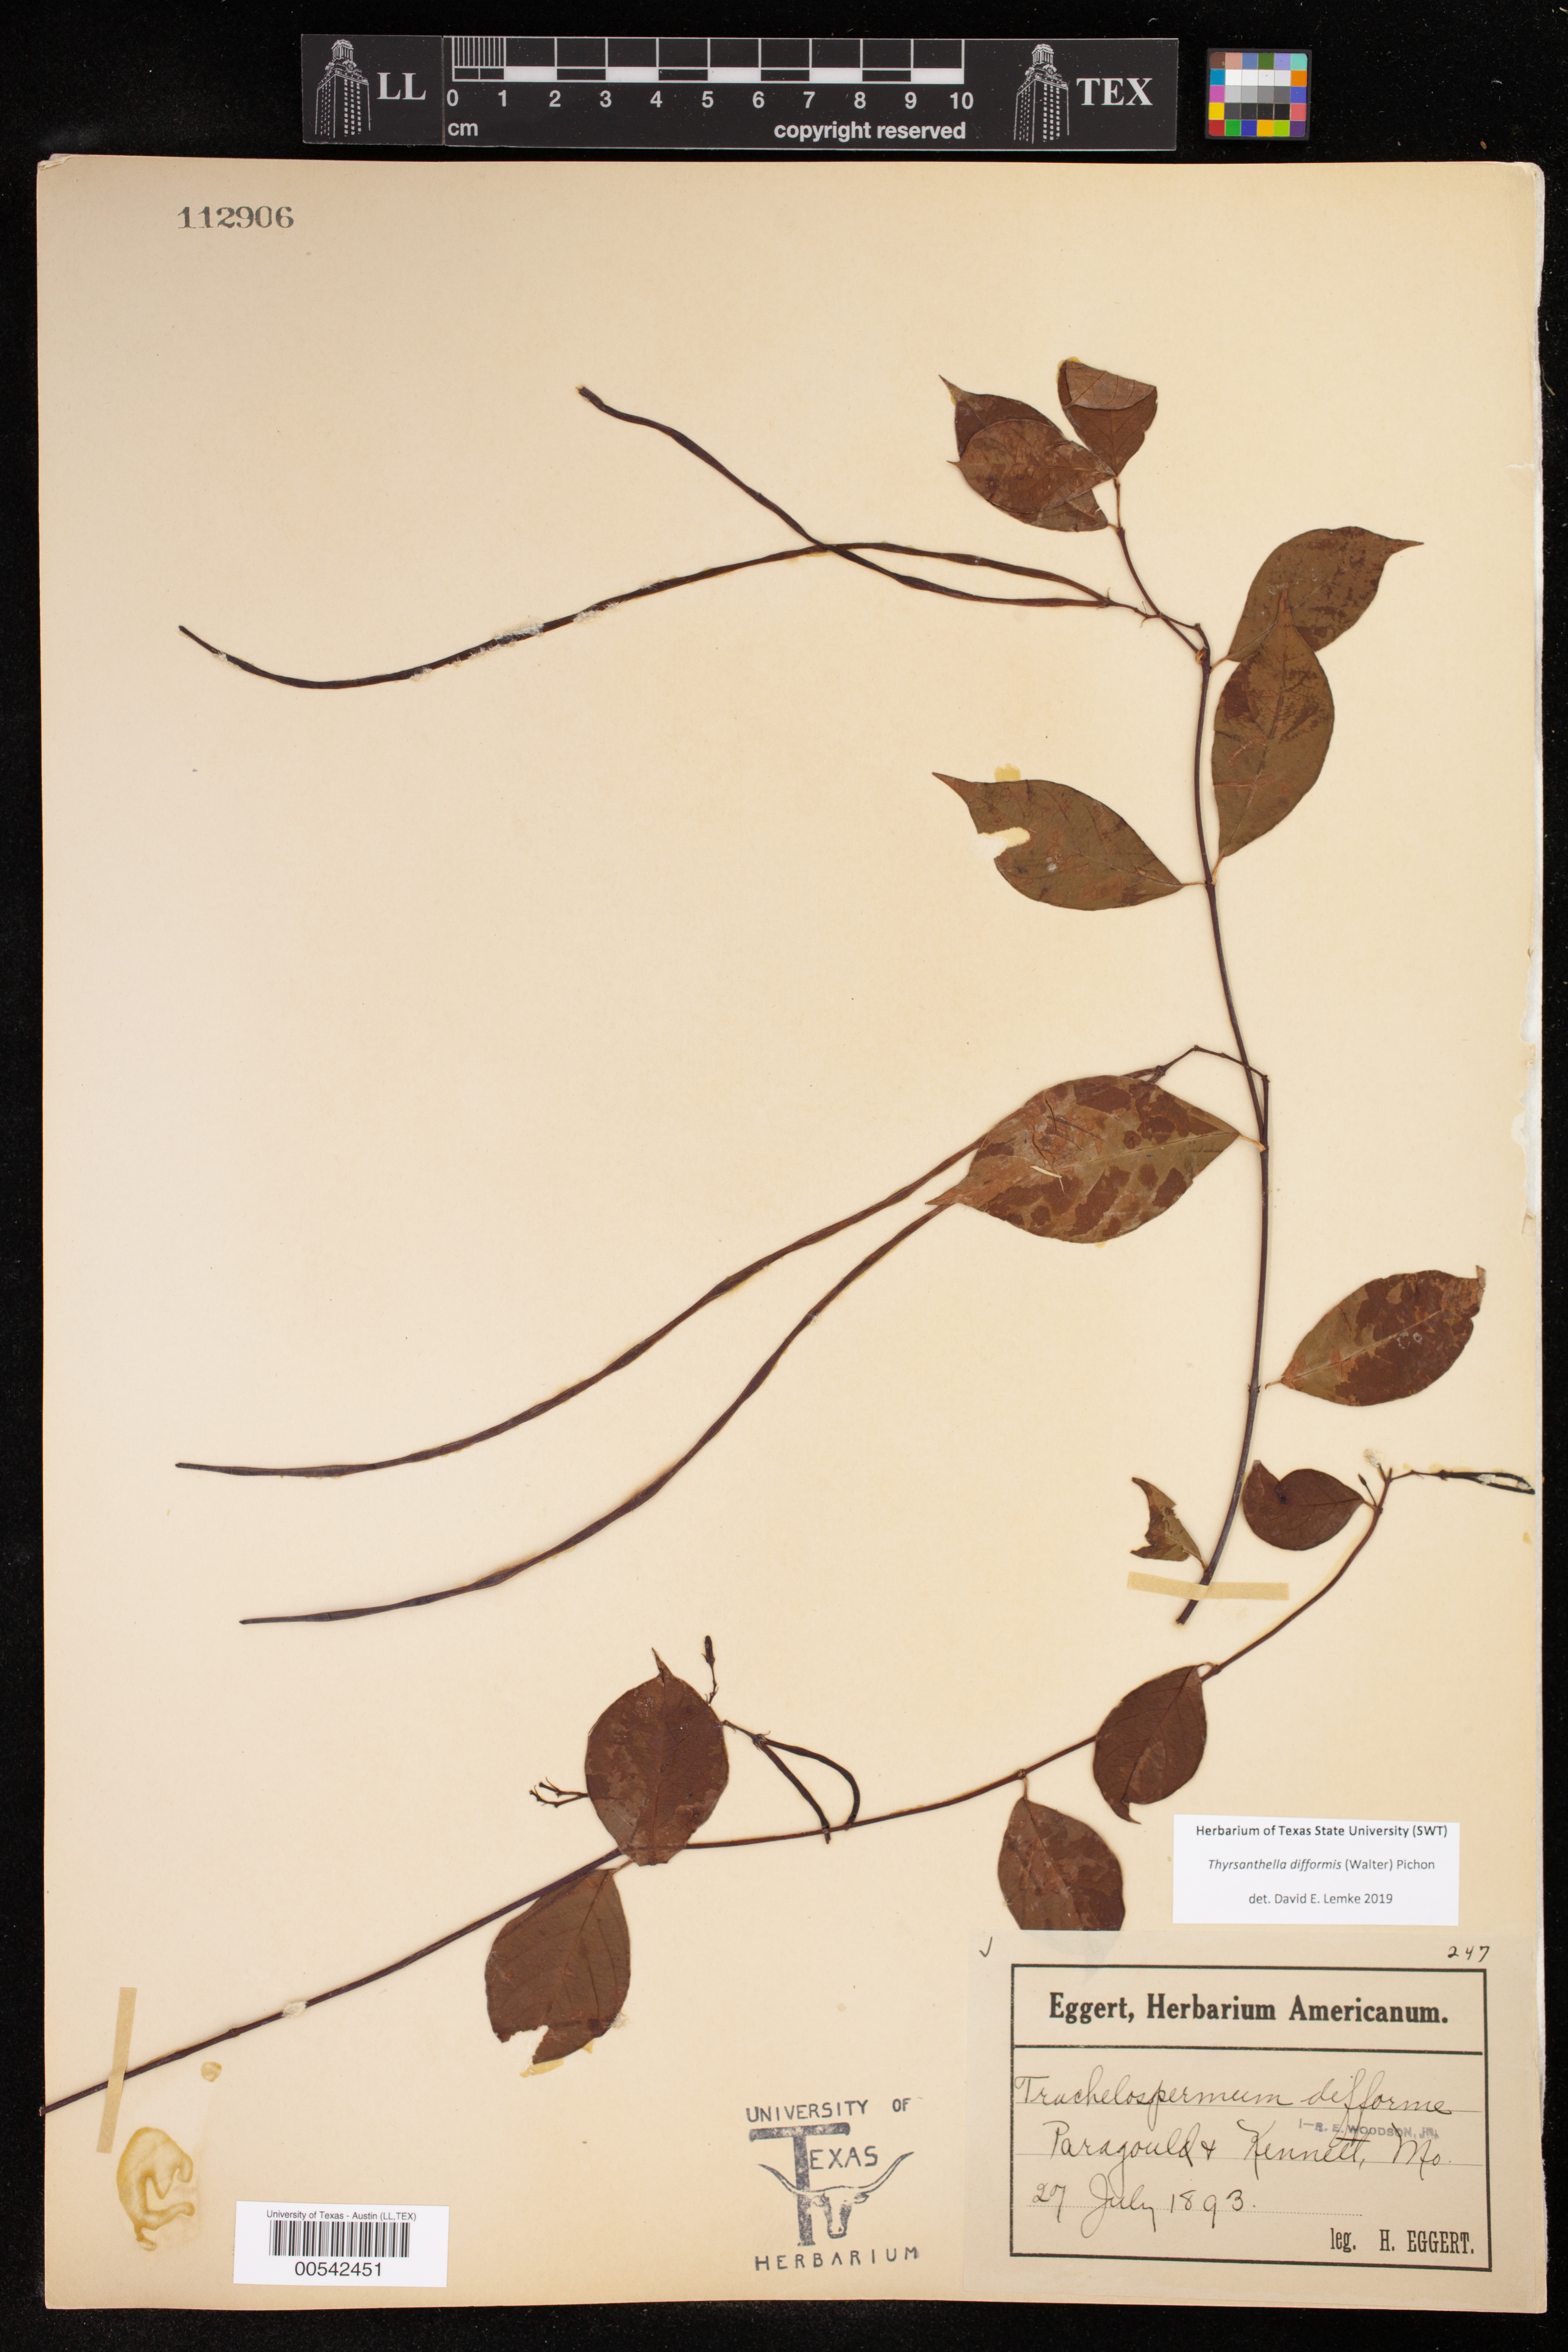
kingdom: Plantae
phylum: Tracheophyta
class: Magnoliopsida
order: Gentianales
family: Apocynaceae
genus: Thyrsanthella
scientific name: Thyrsanthella difformis
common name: Climbing dogbane
